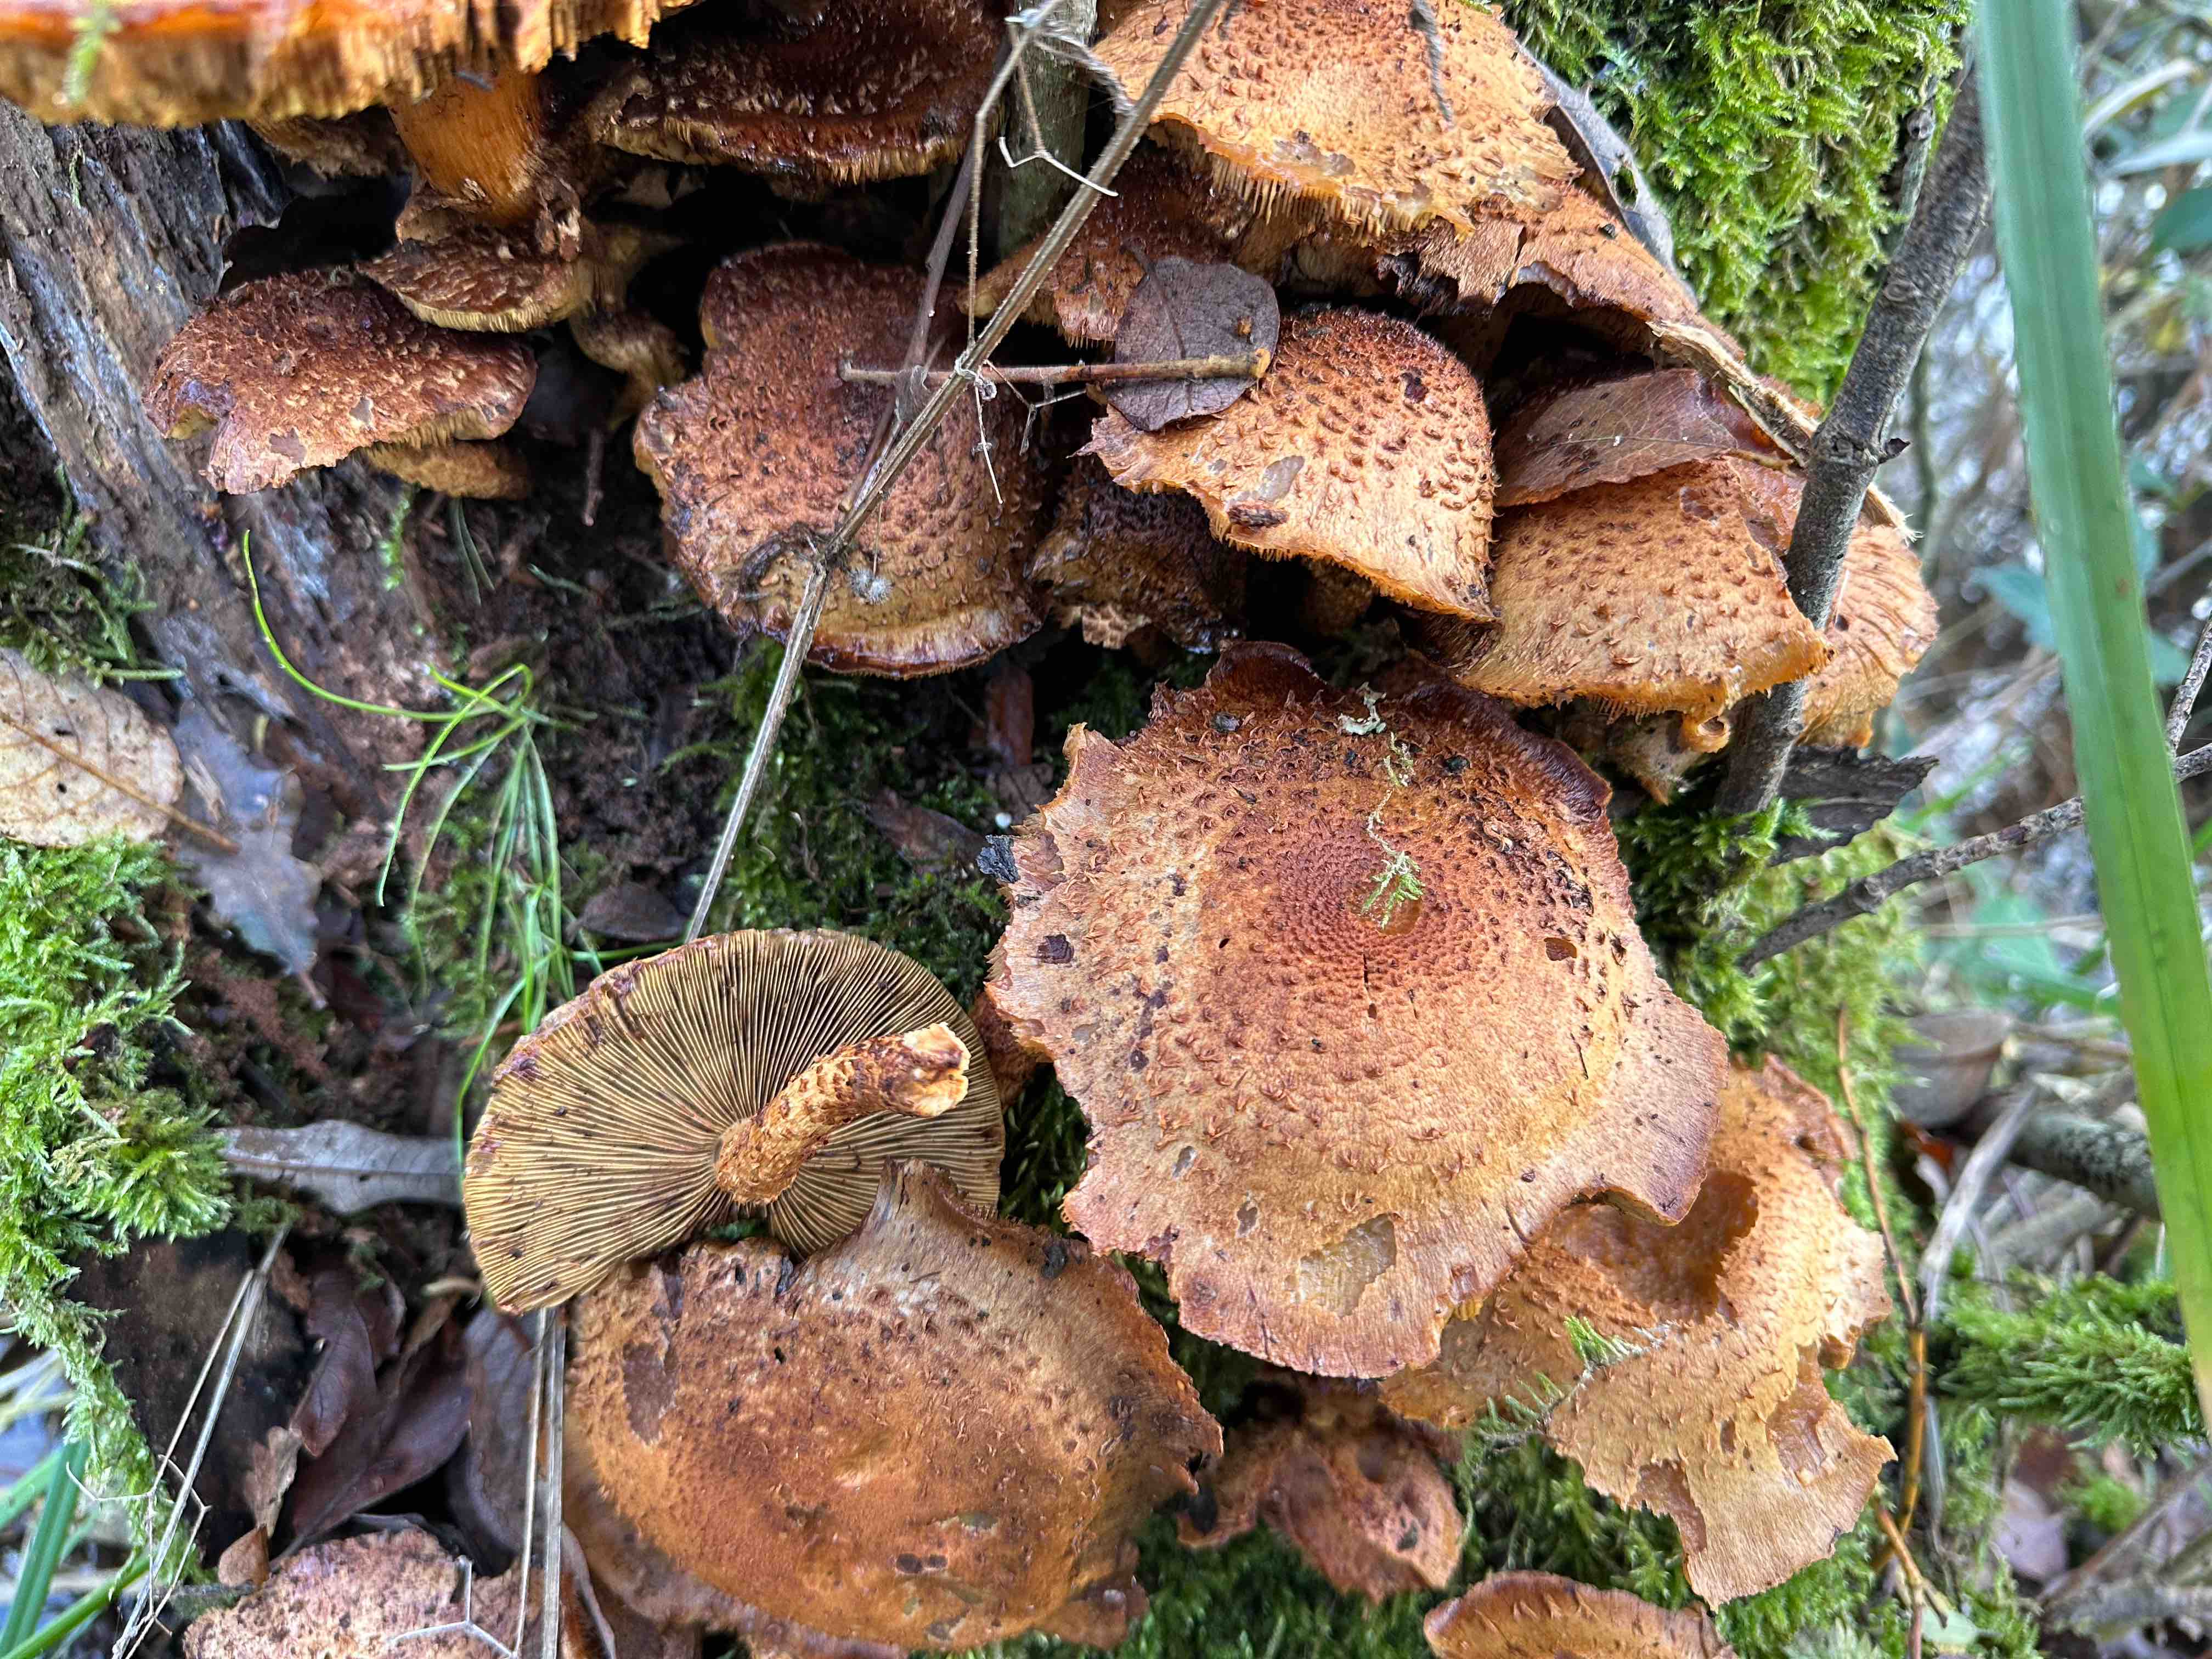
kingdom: Fungi
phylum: Basidiomycota
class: Agaricomycetes
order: Agaricales
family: Strophariaceae
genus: Pholiota
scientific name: Pholiota squarrosa
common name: krumskællet skælhat
